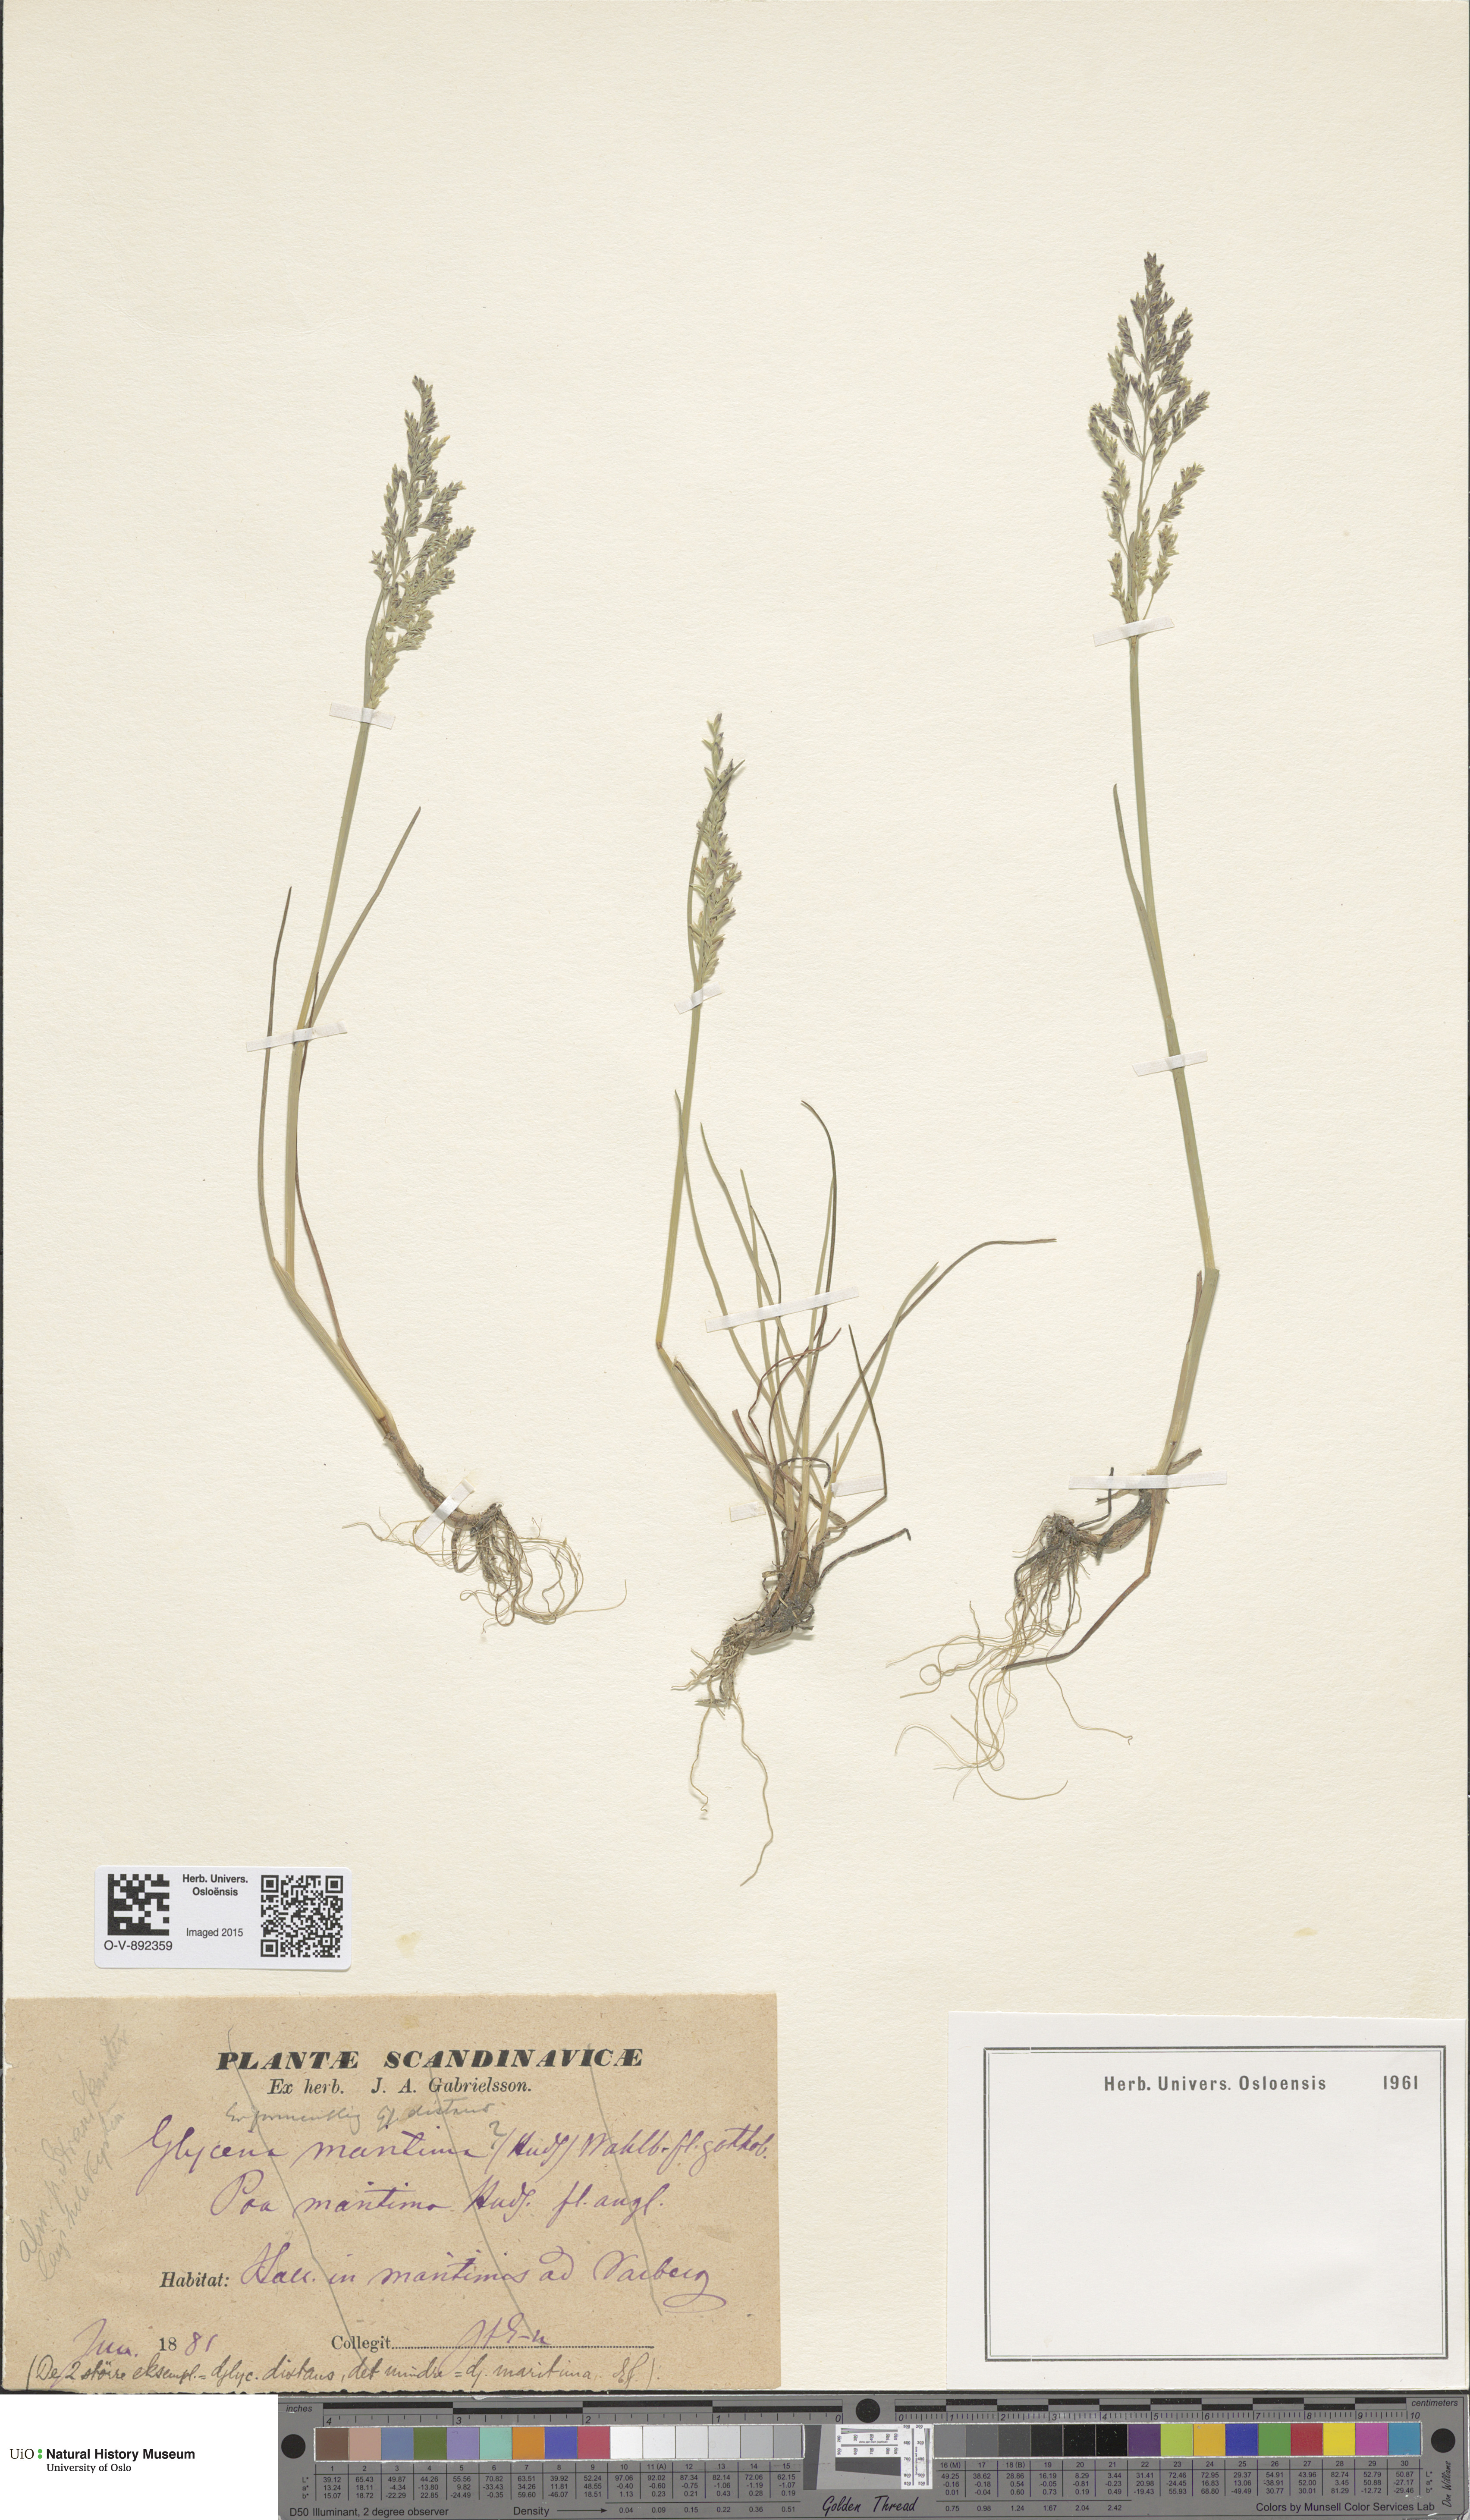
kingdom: Plantae
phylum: Tracheophyta
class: Liliopsida
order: Poales
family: Poaceae
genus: Puccinellia
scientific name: Puccinellia maritima
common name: Common saltmarsh grass
